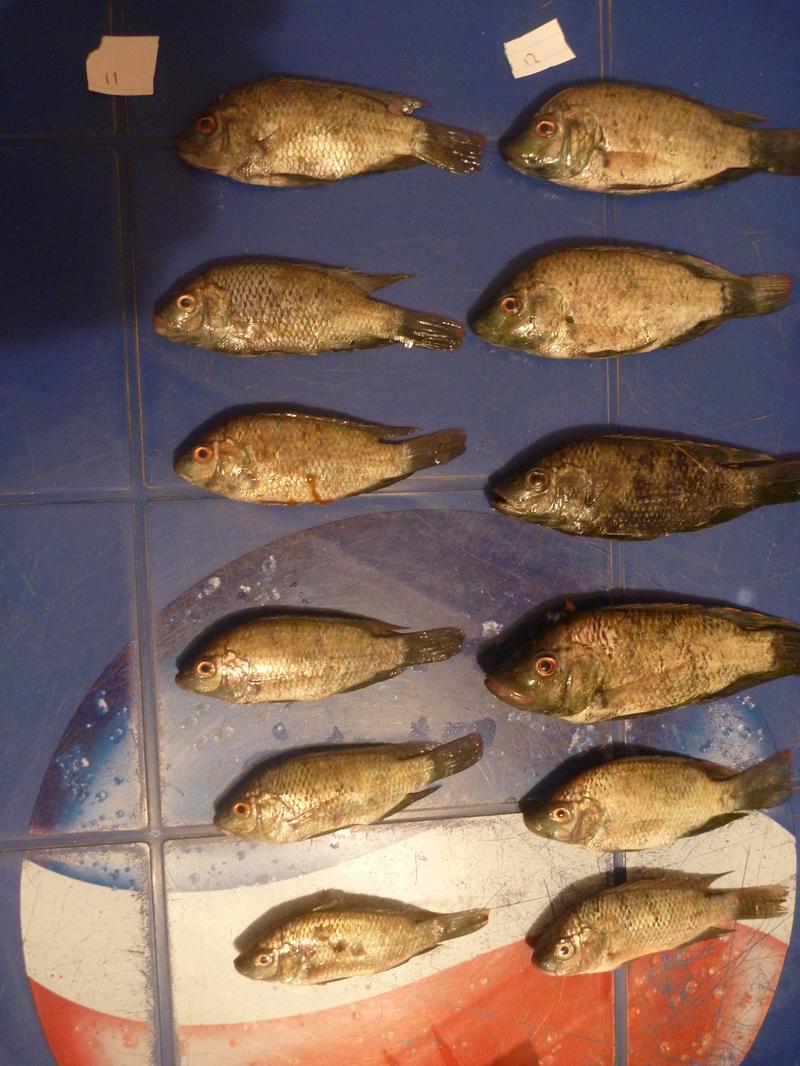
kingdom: Animalia
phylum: Chordata
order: Perciformes
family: Cichlidae
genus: Oreochromis
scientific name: Oreochromis urolepis
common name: Wami tilapia
